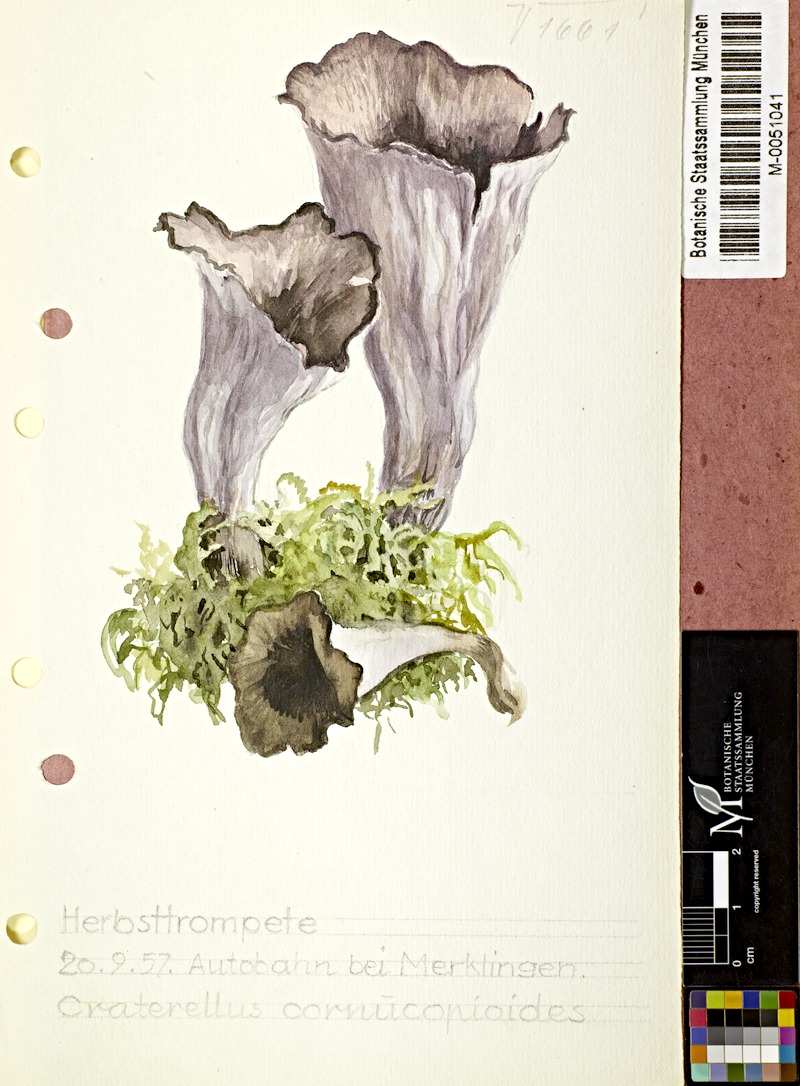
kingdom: Fungi
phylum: Basidiomycota
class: Agaricomycetes
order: Cantharellales
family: Hydnaceae
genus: Craterellus
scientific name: Craterellus cornucopioides
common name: Horn of plenty
